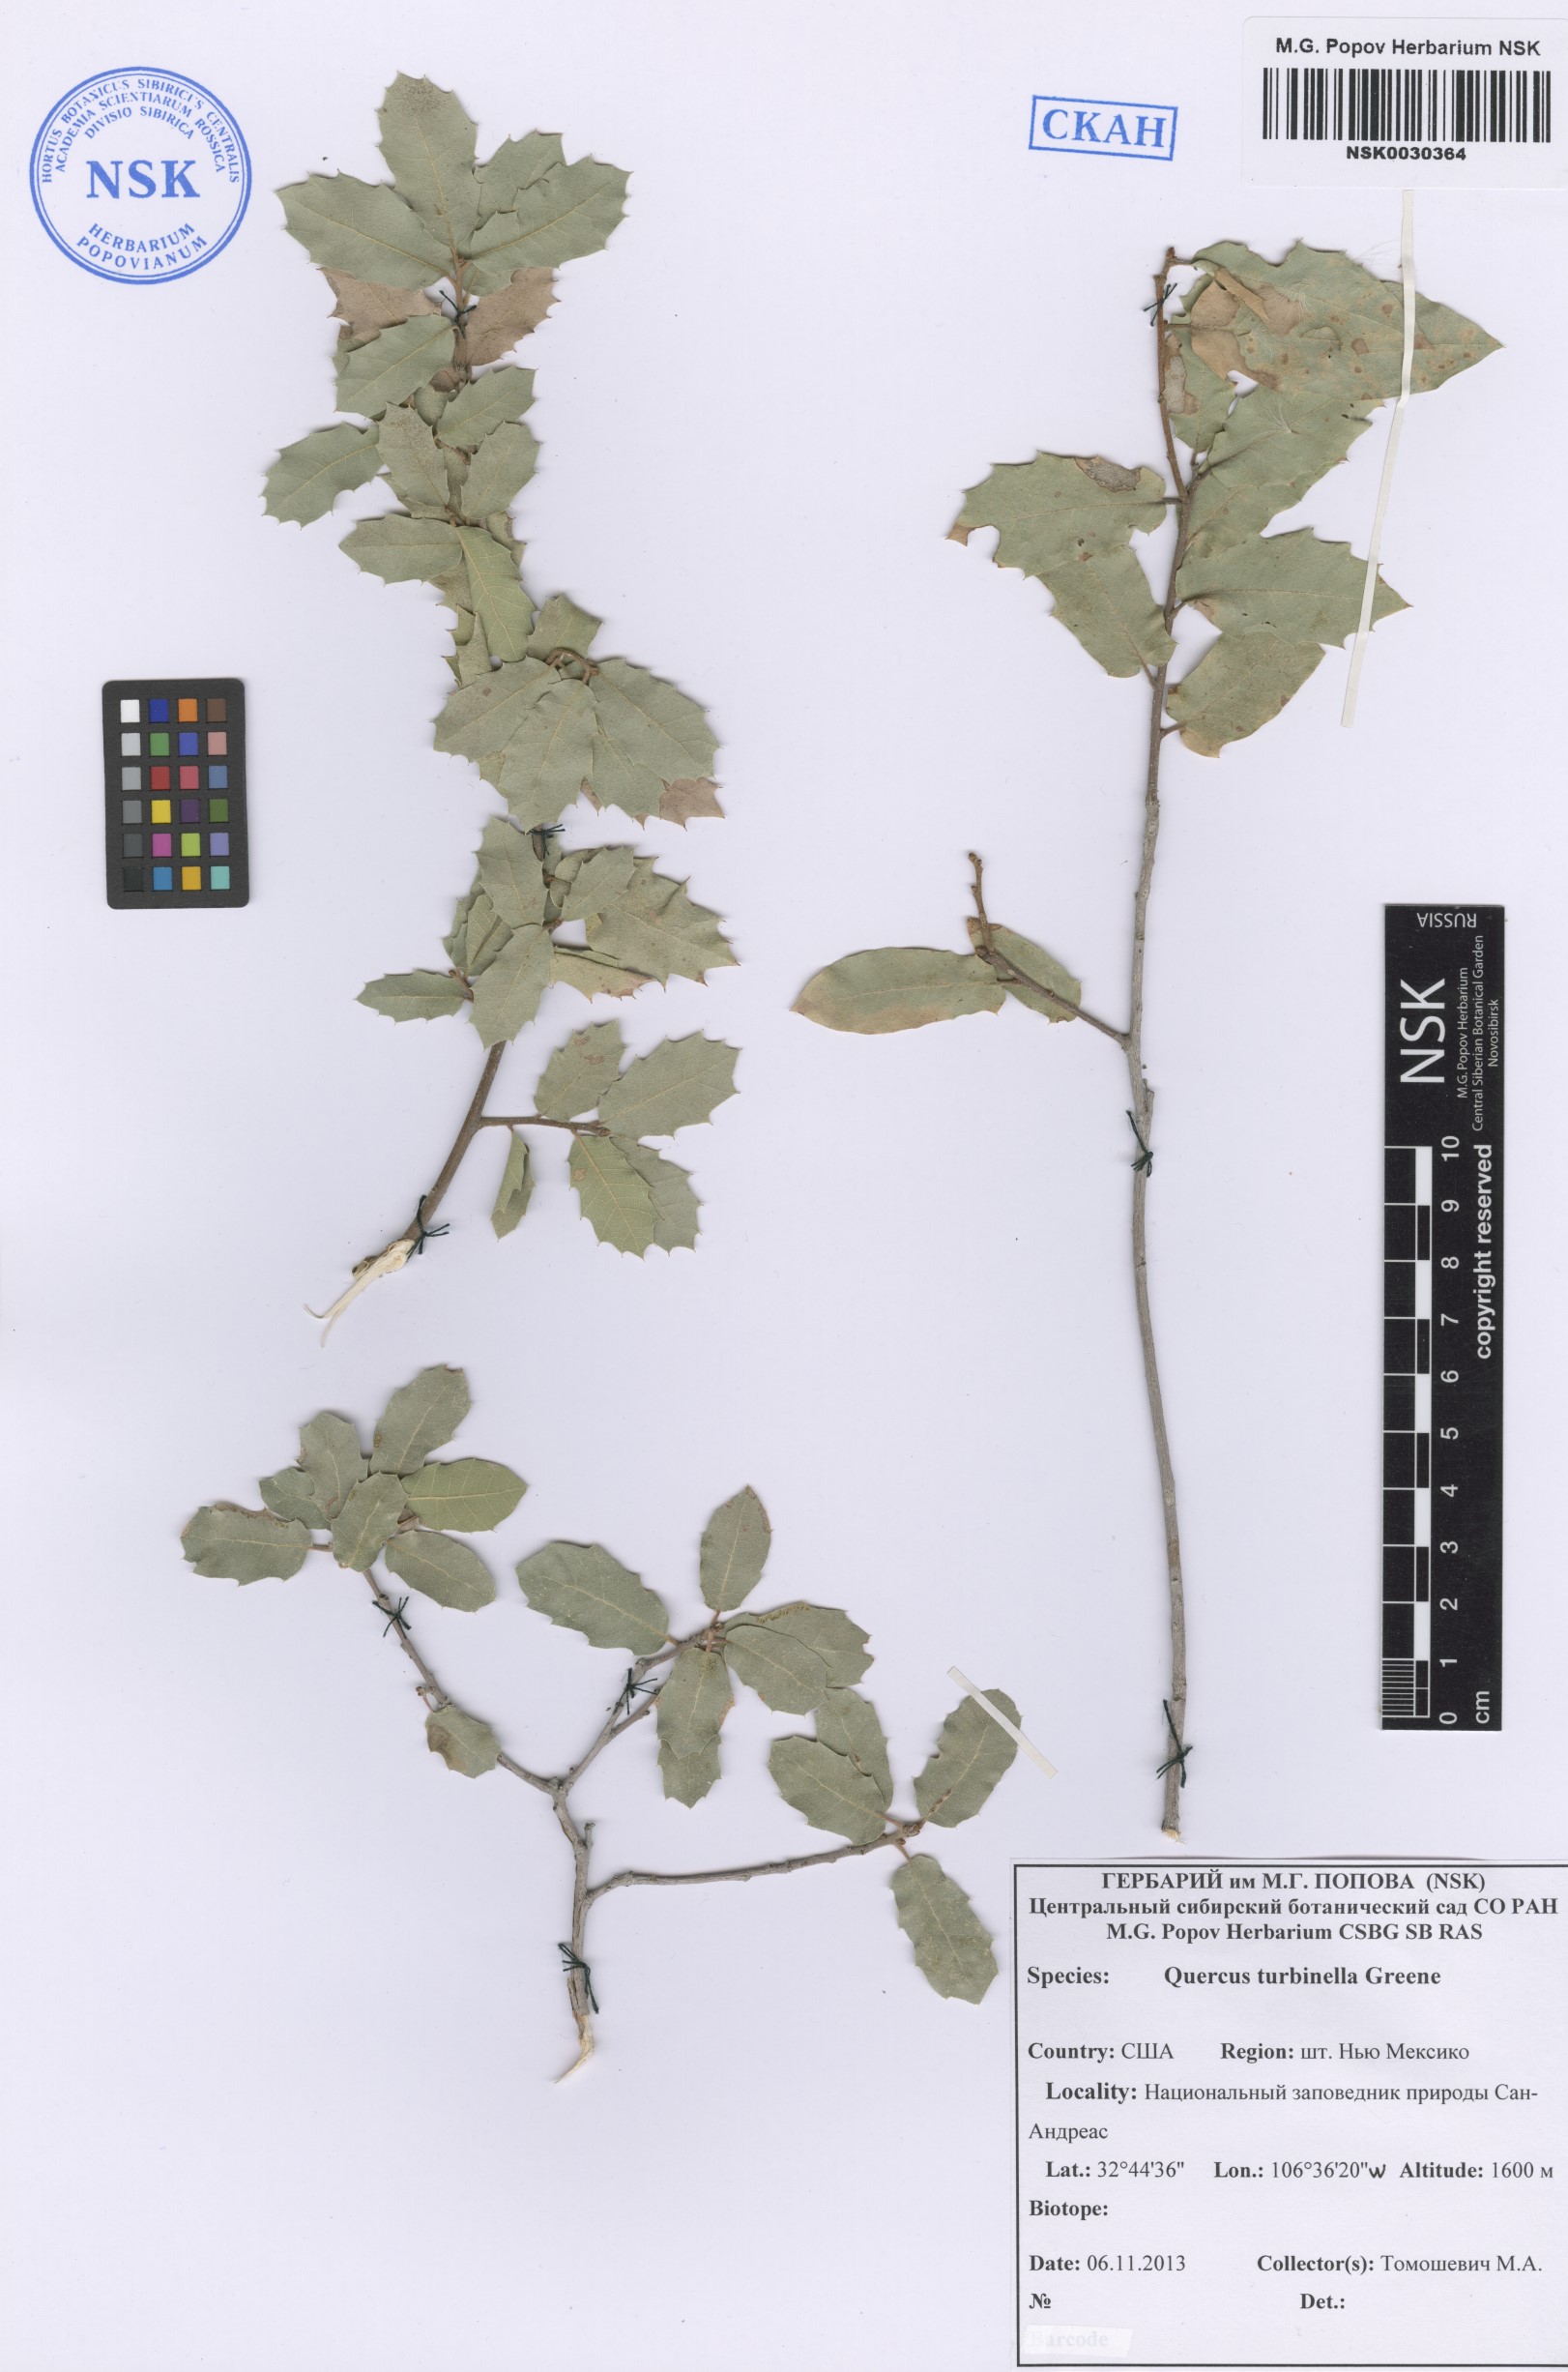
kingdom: Plantae
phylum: Tracheophyta
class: Magnoliopsida
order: Fagales
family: Fagaceae
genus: Quercus
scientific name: Quercus turbinella
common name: Sonoran scrub oak
